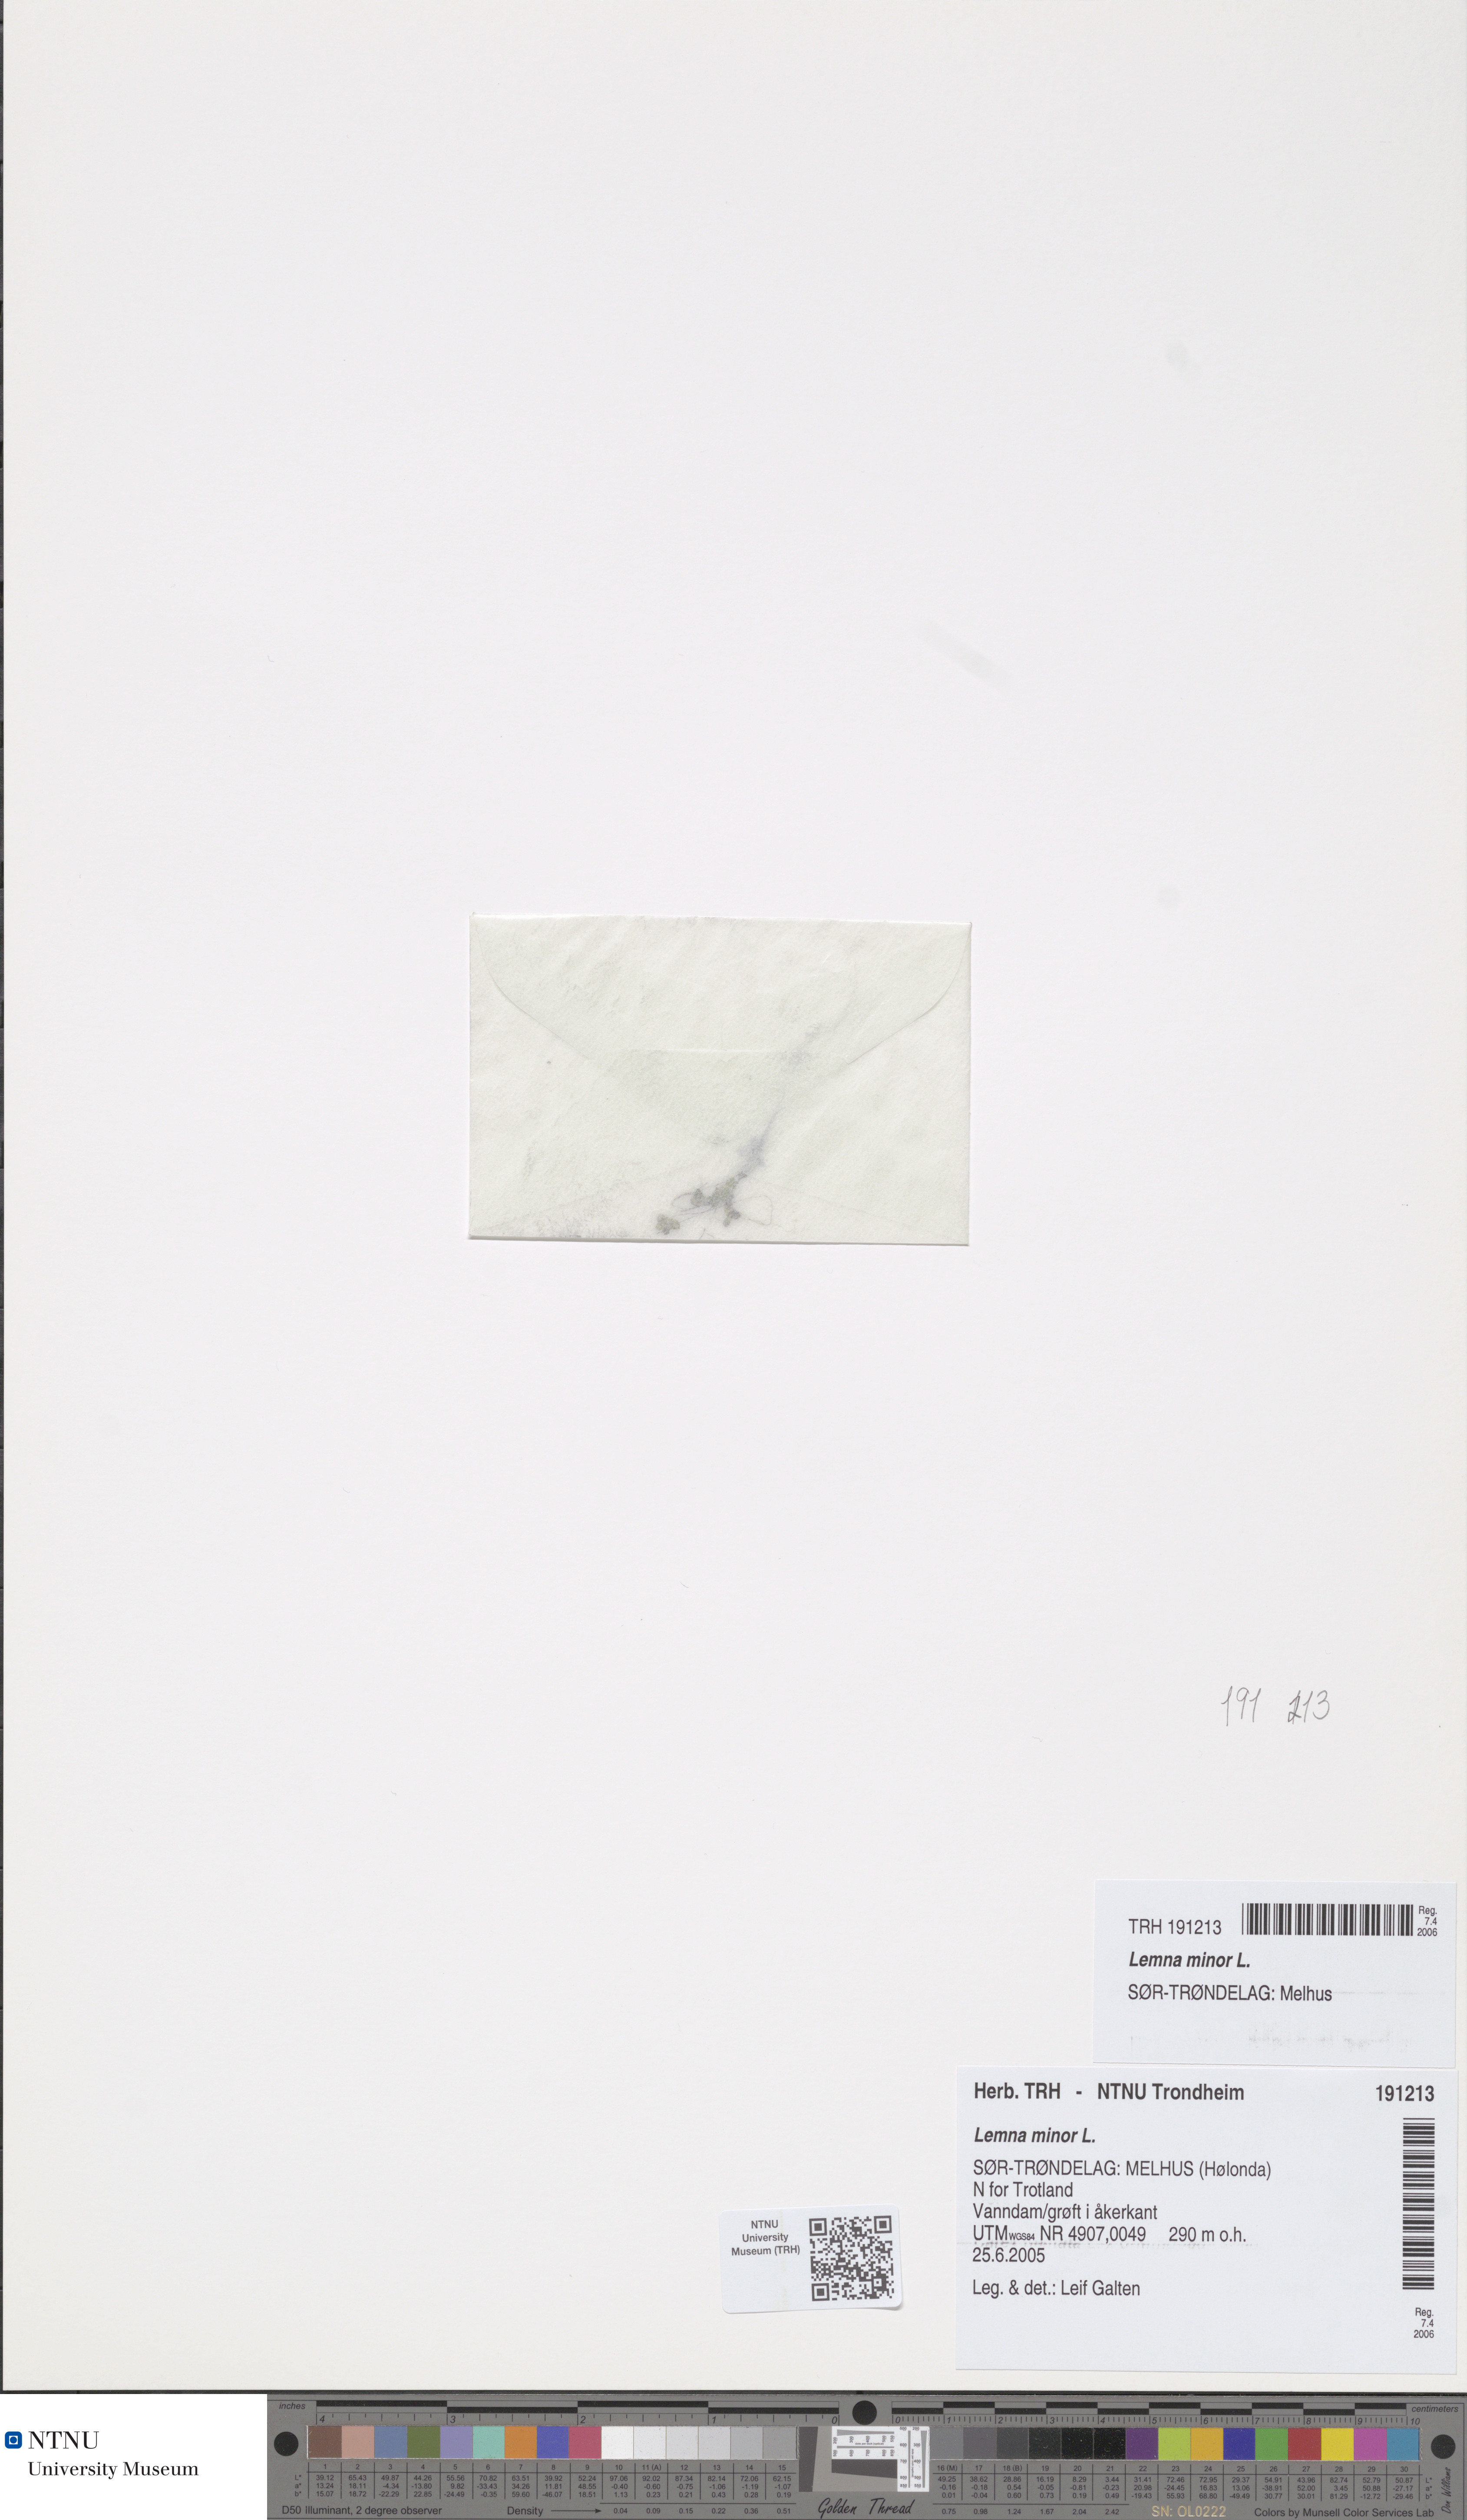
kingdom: Plantae
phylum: Tracheophyta
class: Liliopsida
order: Alismatales
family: Araceae
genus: Lemna
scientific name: Lemna minor
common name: Common duckweed
